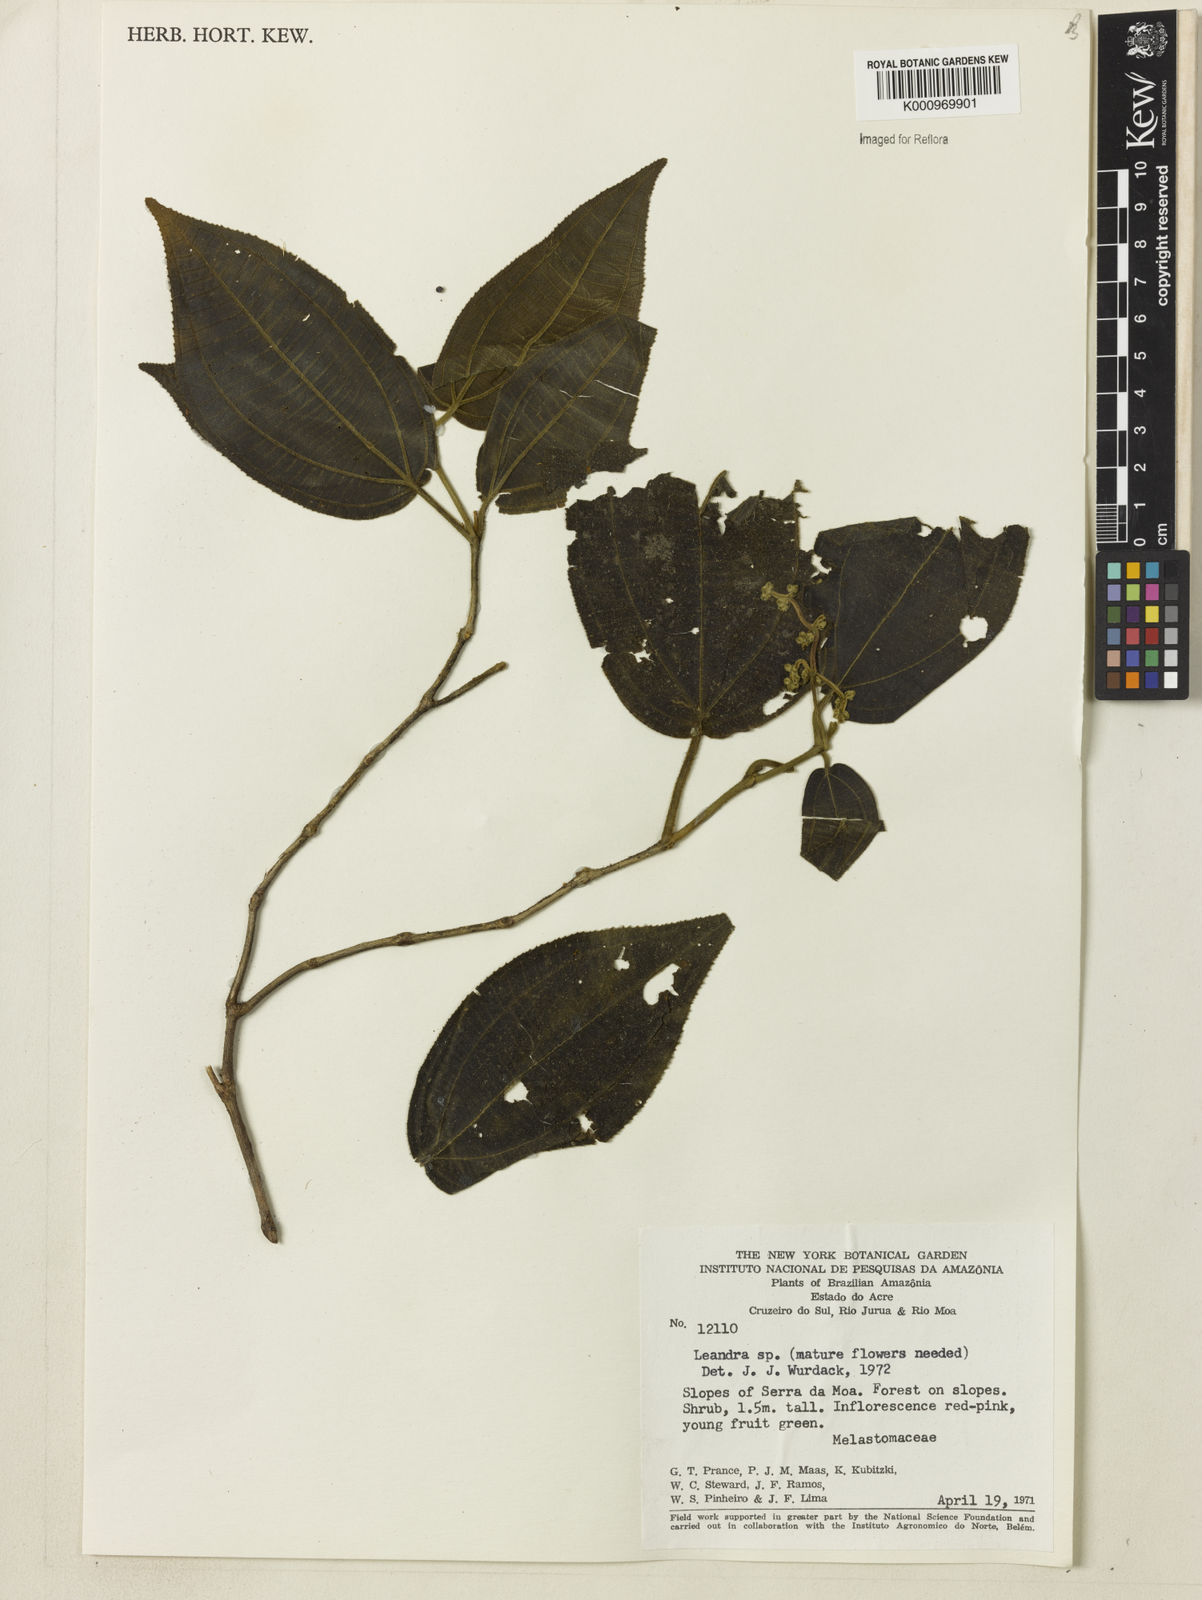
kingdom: Plantae
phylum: Tracheophyta
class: Magnoliopsida
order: Myrtales
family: Melastomataceae
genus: Miconia
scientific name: Miconia
